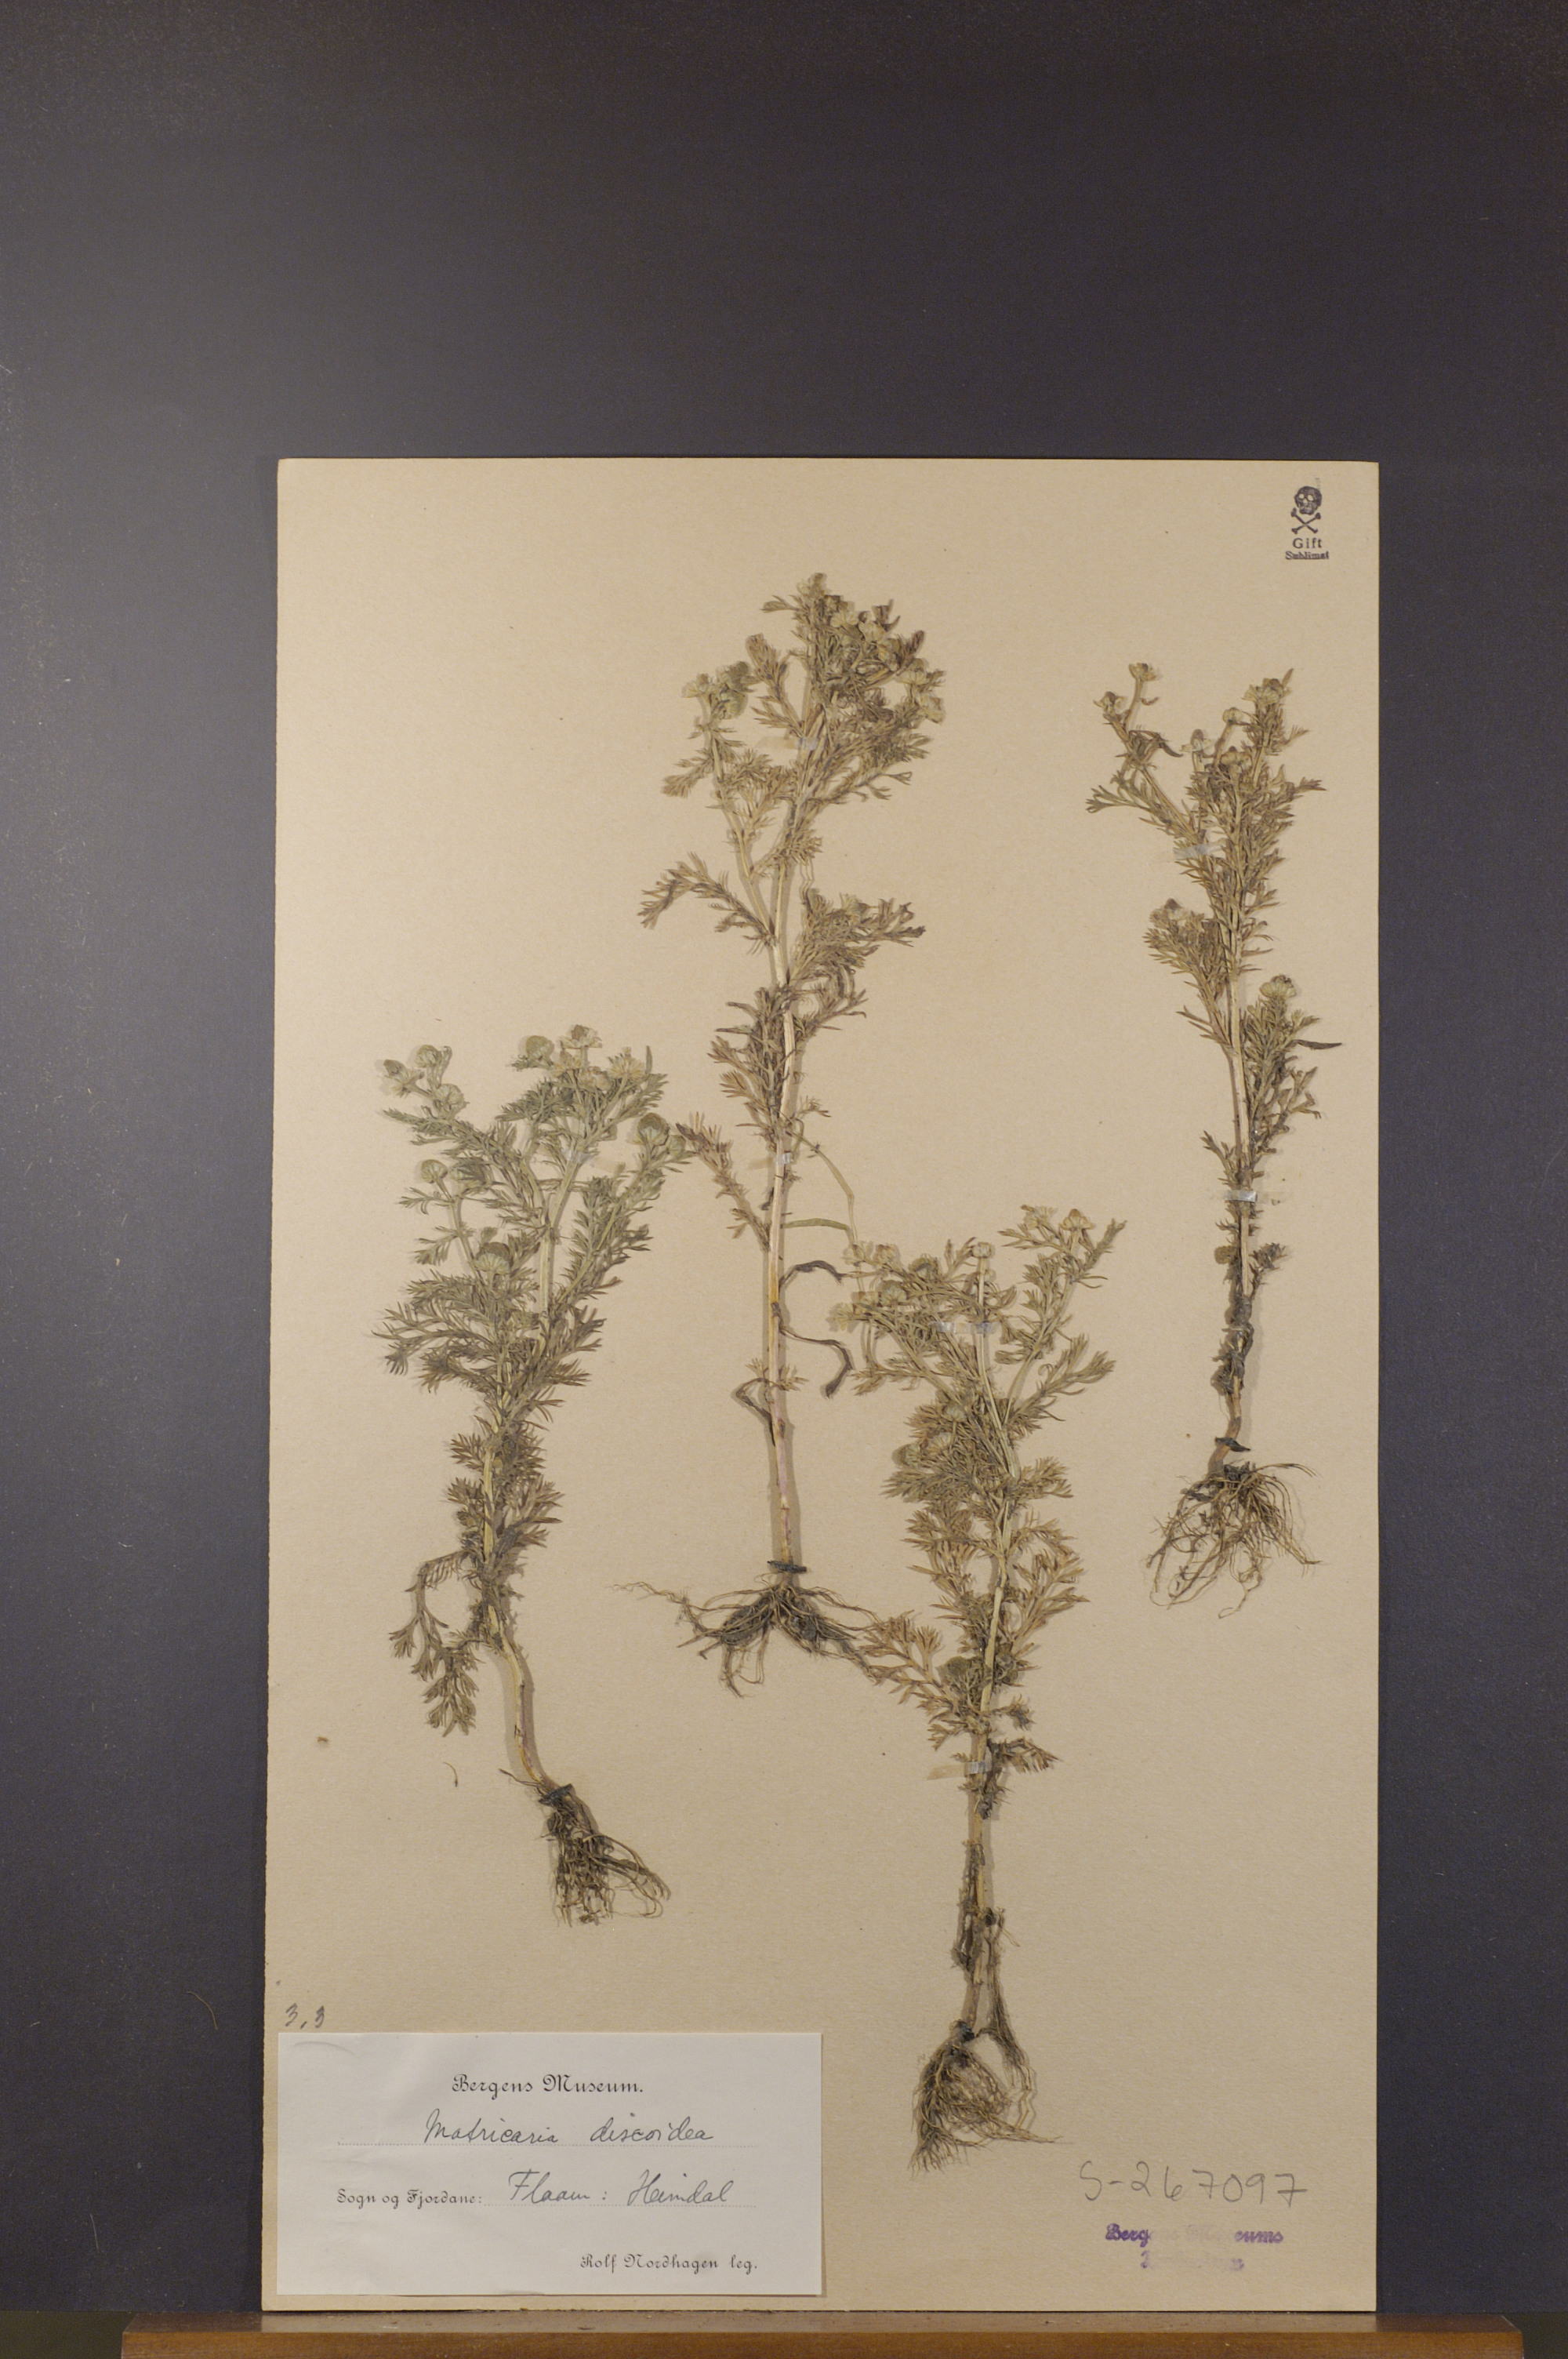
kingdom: Plantae
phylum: Tracheophyta
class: Magnoliopsida
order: Asterales
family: Asteraceae
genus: Matricaria
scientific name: Matricaria discoidea
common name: Disc mayweed
